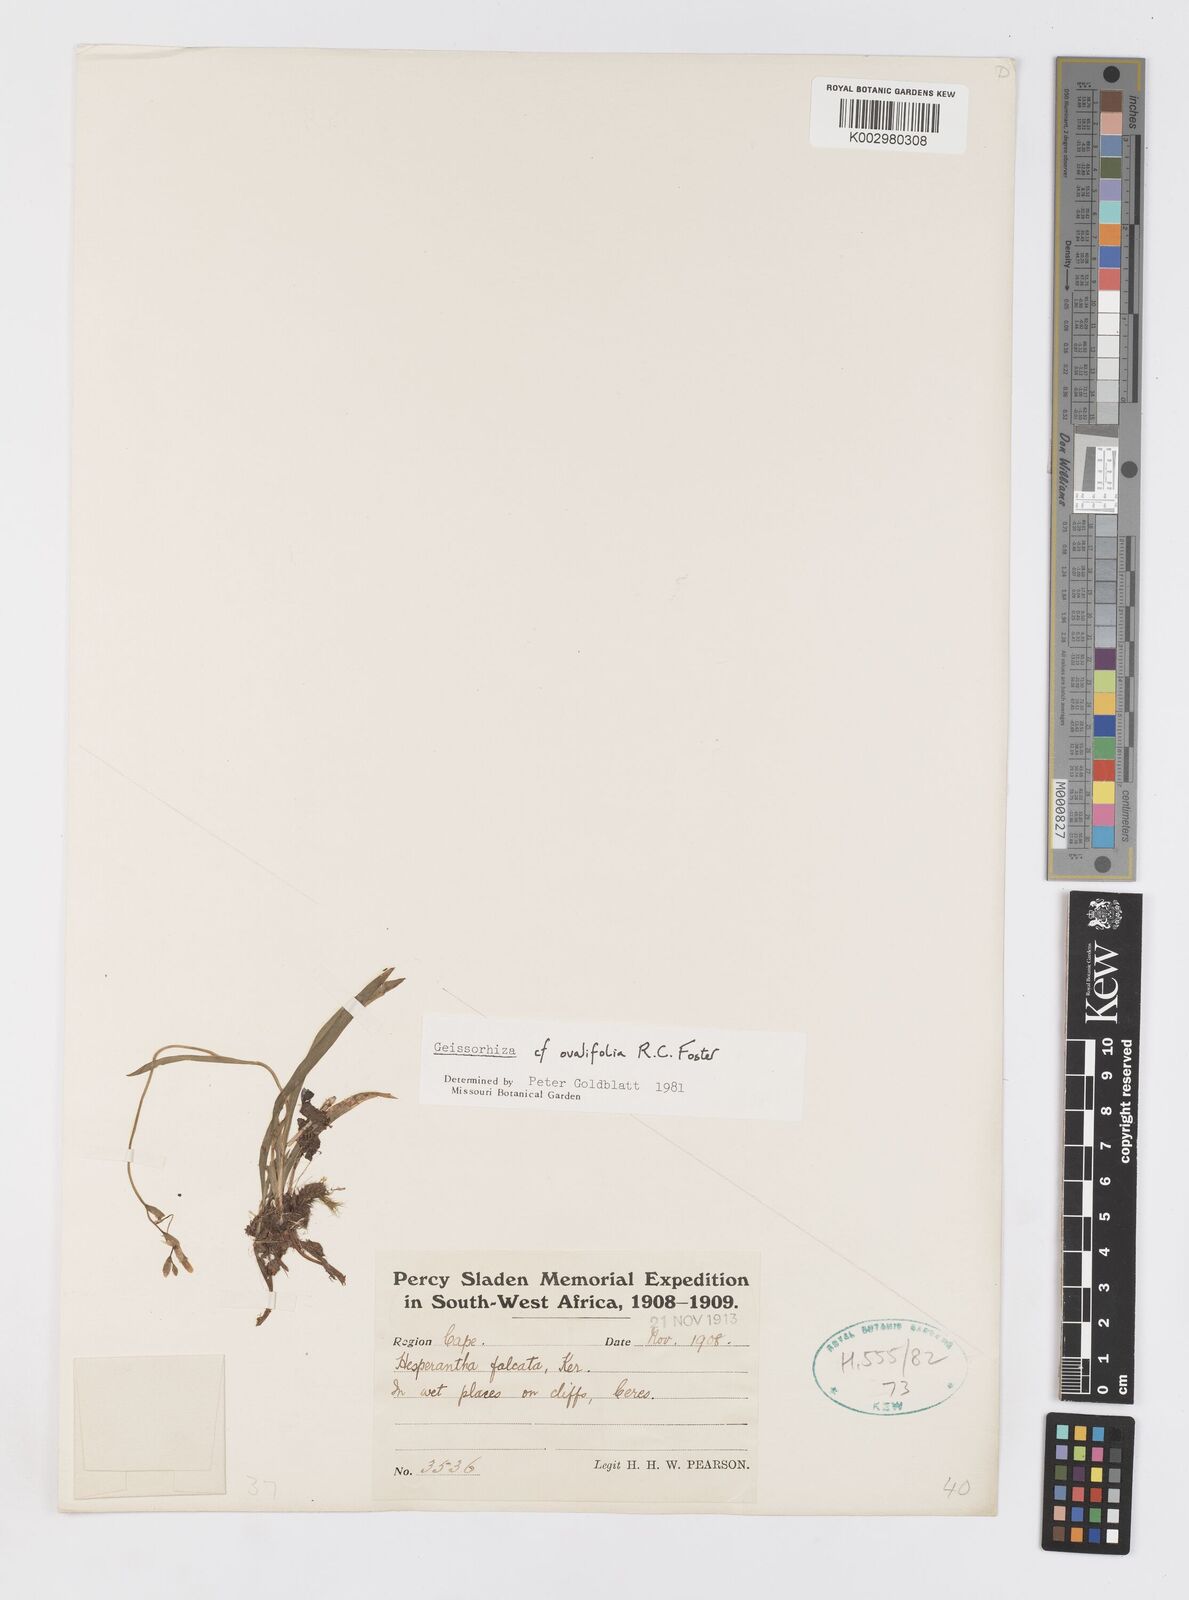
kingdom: Plantae
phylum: Tracheophyta
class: Liliopsida
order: Asparagales
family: Iridaceae
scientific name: Iridaceae
